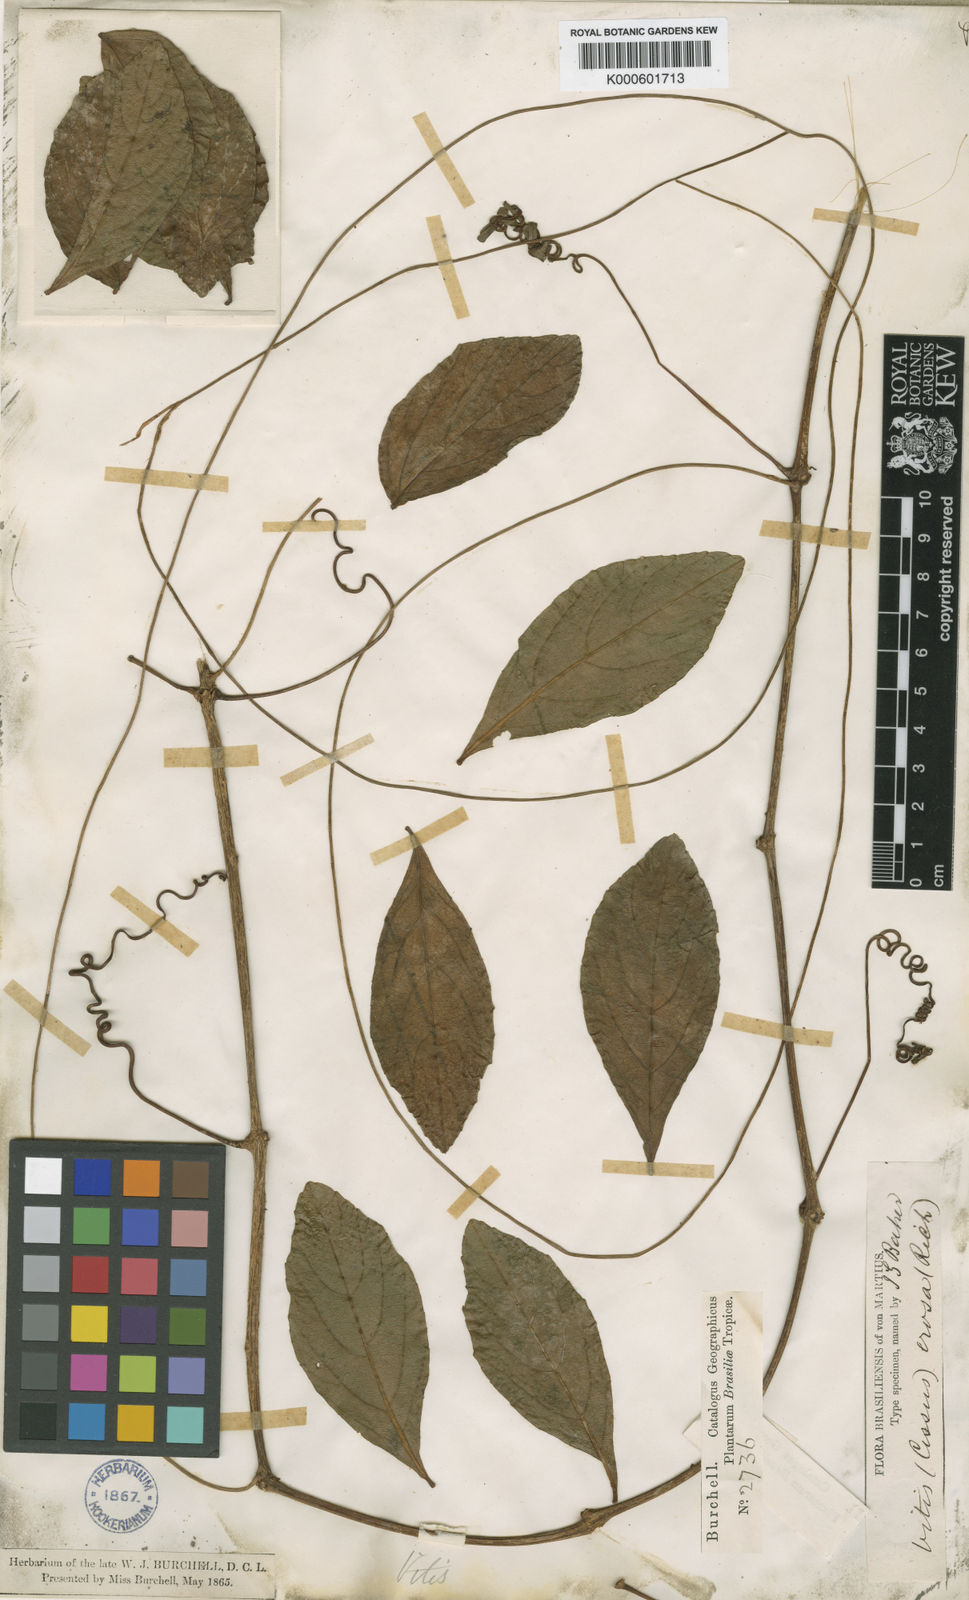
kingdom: Plantae
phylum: Tracheophyta
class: Magnoliopsida
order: Vitales
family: Vitaceae
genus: Cissus
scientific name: Cissus erosa
